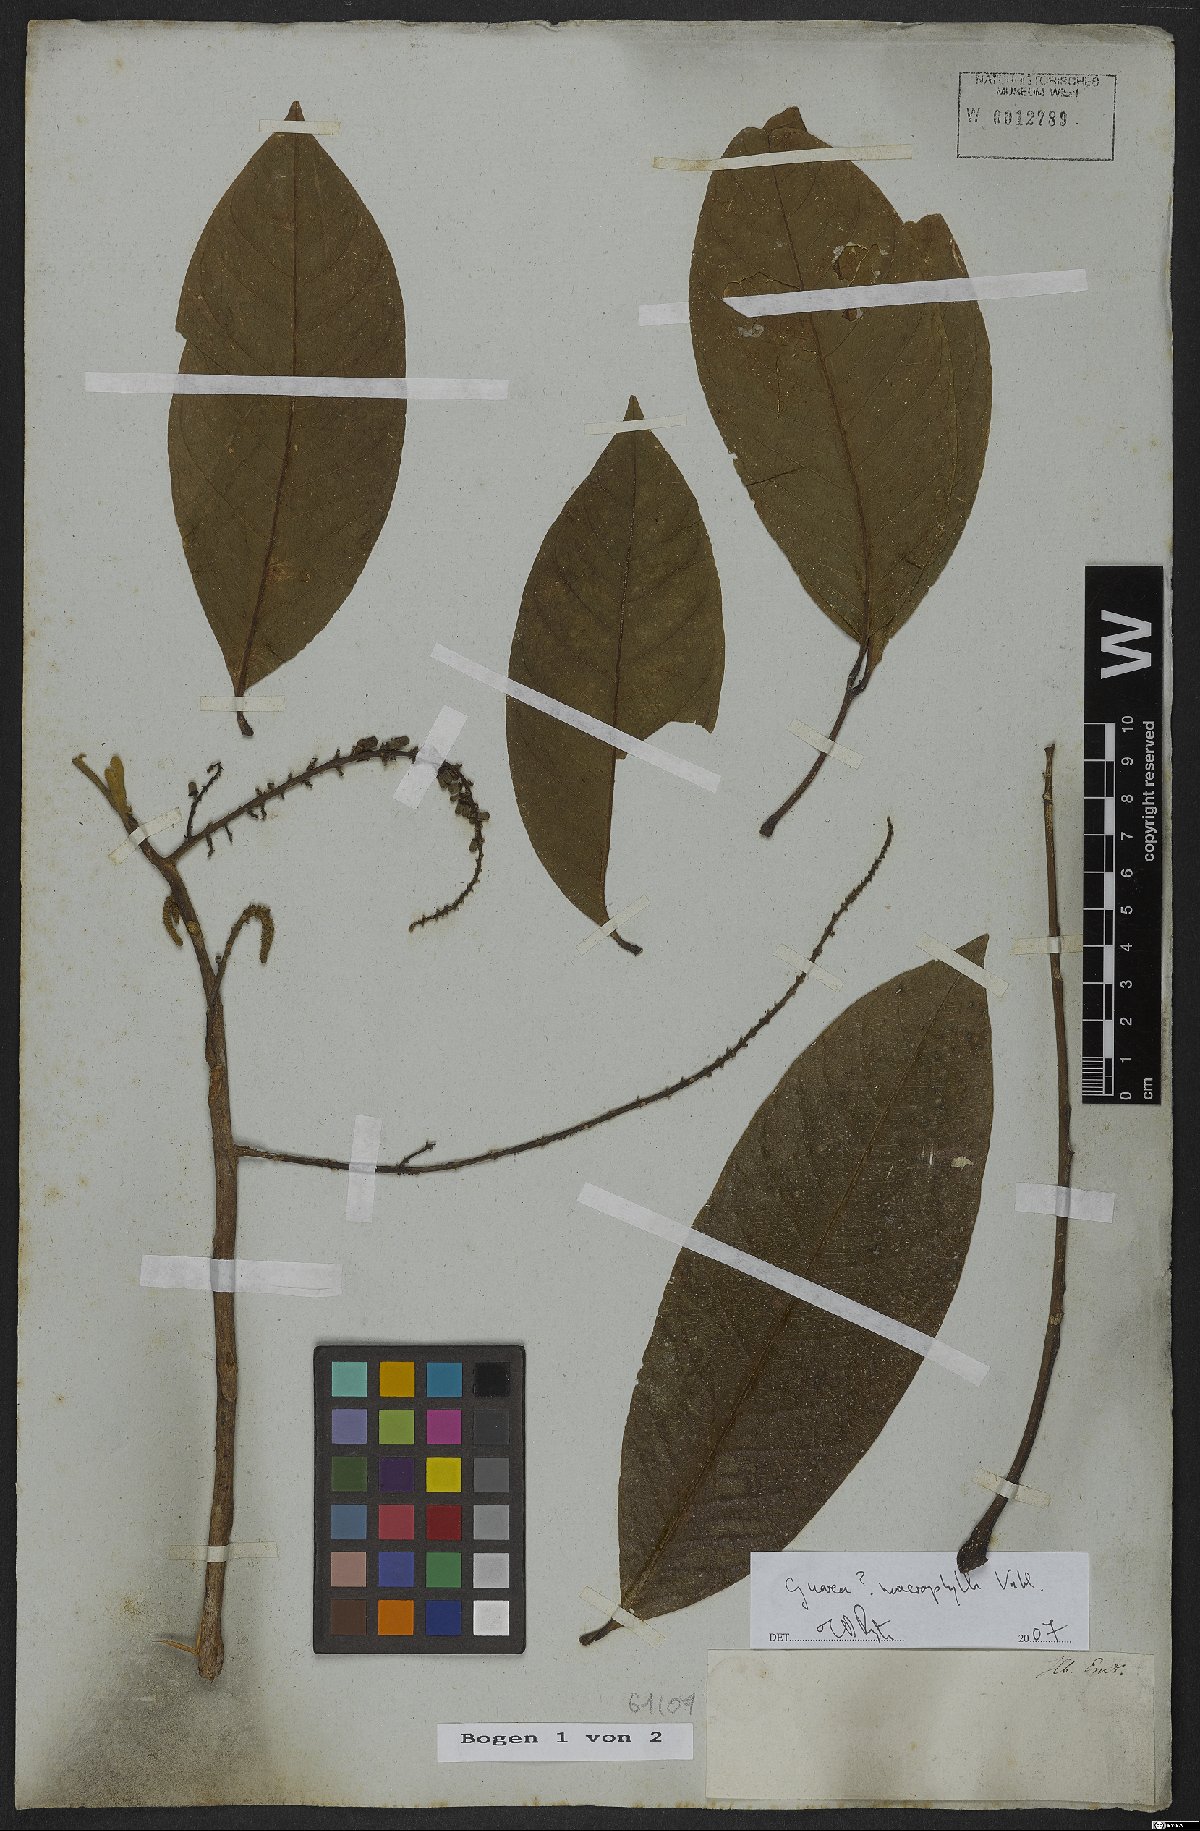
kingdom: Plantae
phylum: Tracheophyta
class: Magnoliopsida
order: Sapindales
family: Meliaceae
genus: Guarea
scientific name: Guarea macrophylla
